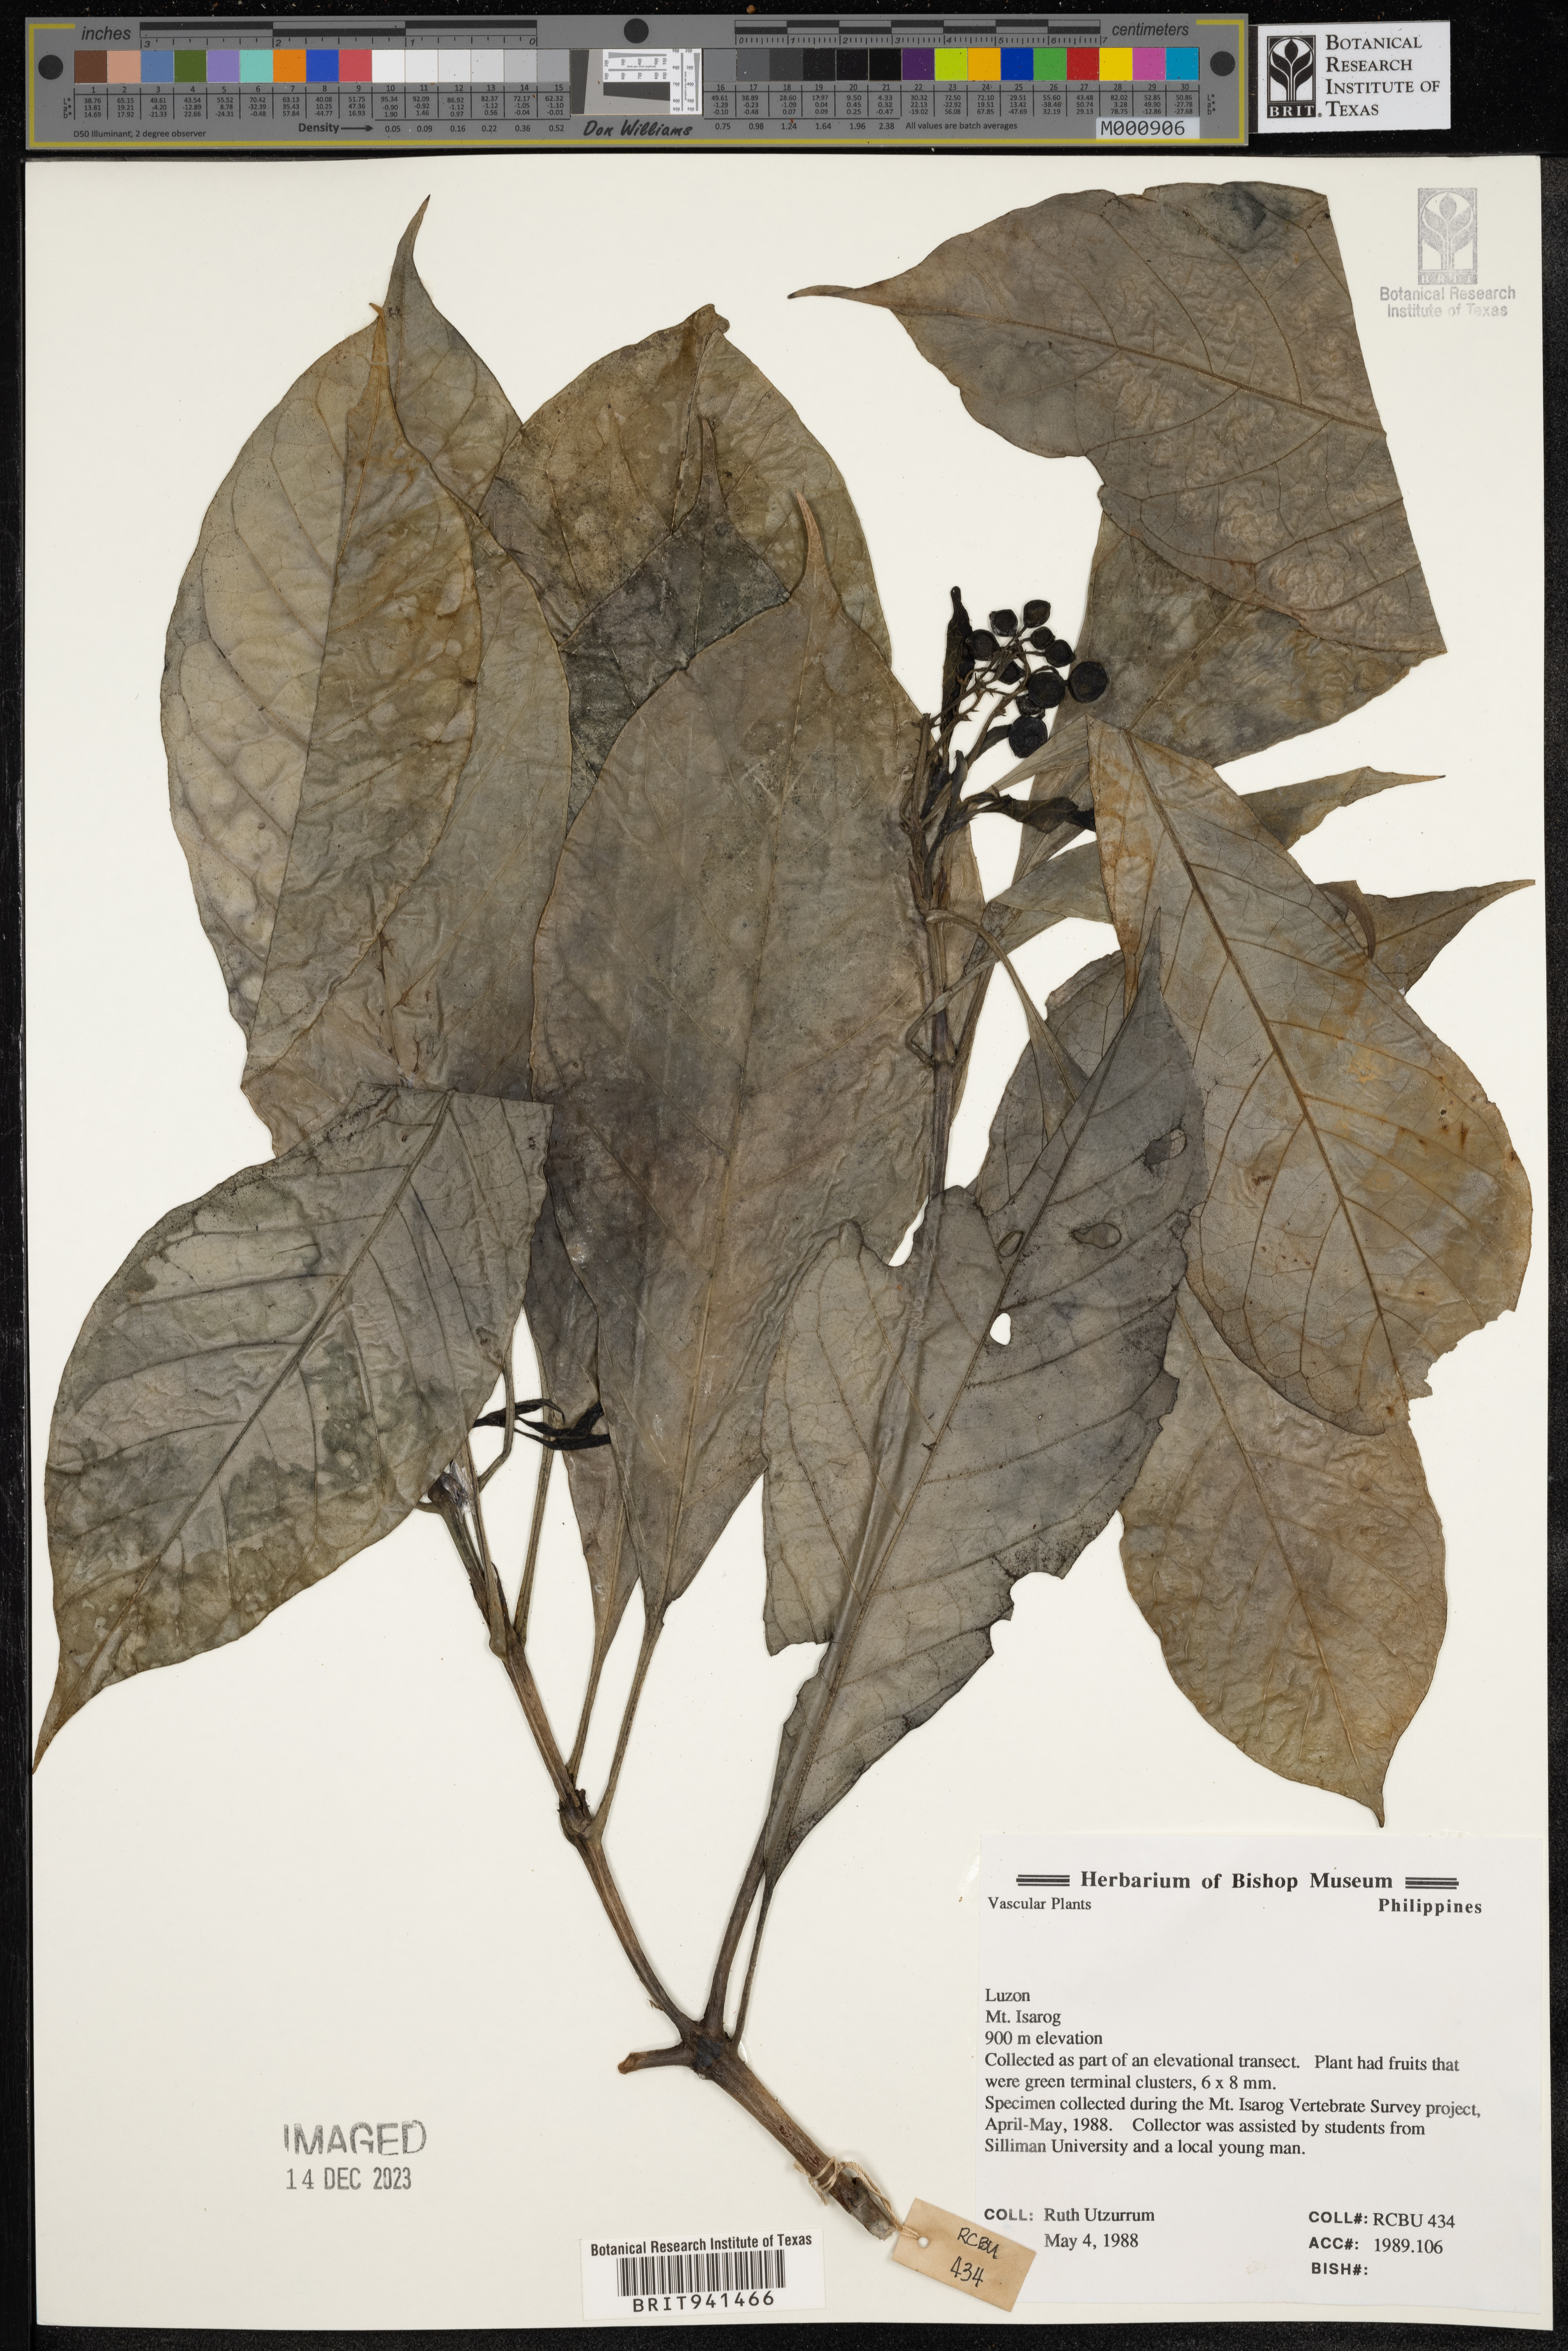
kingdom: Plantae
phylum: Tracheophyta
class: Magnoliopsida
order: Gentianales
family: Rubiaceae
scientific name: Rubiaceae
